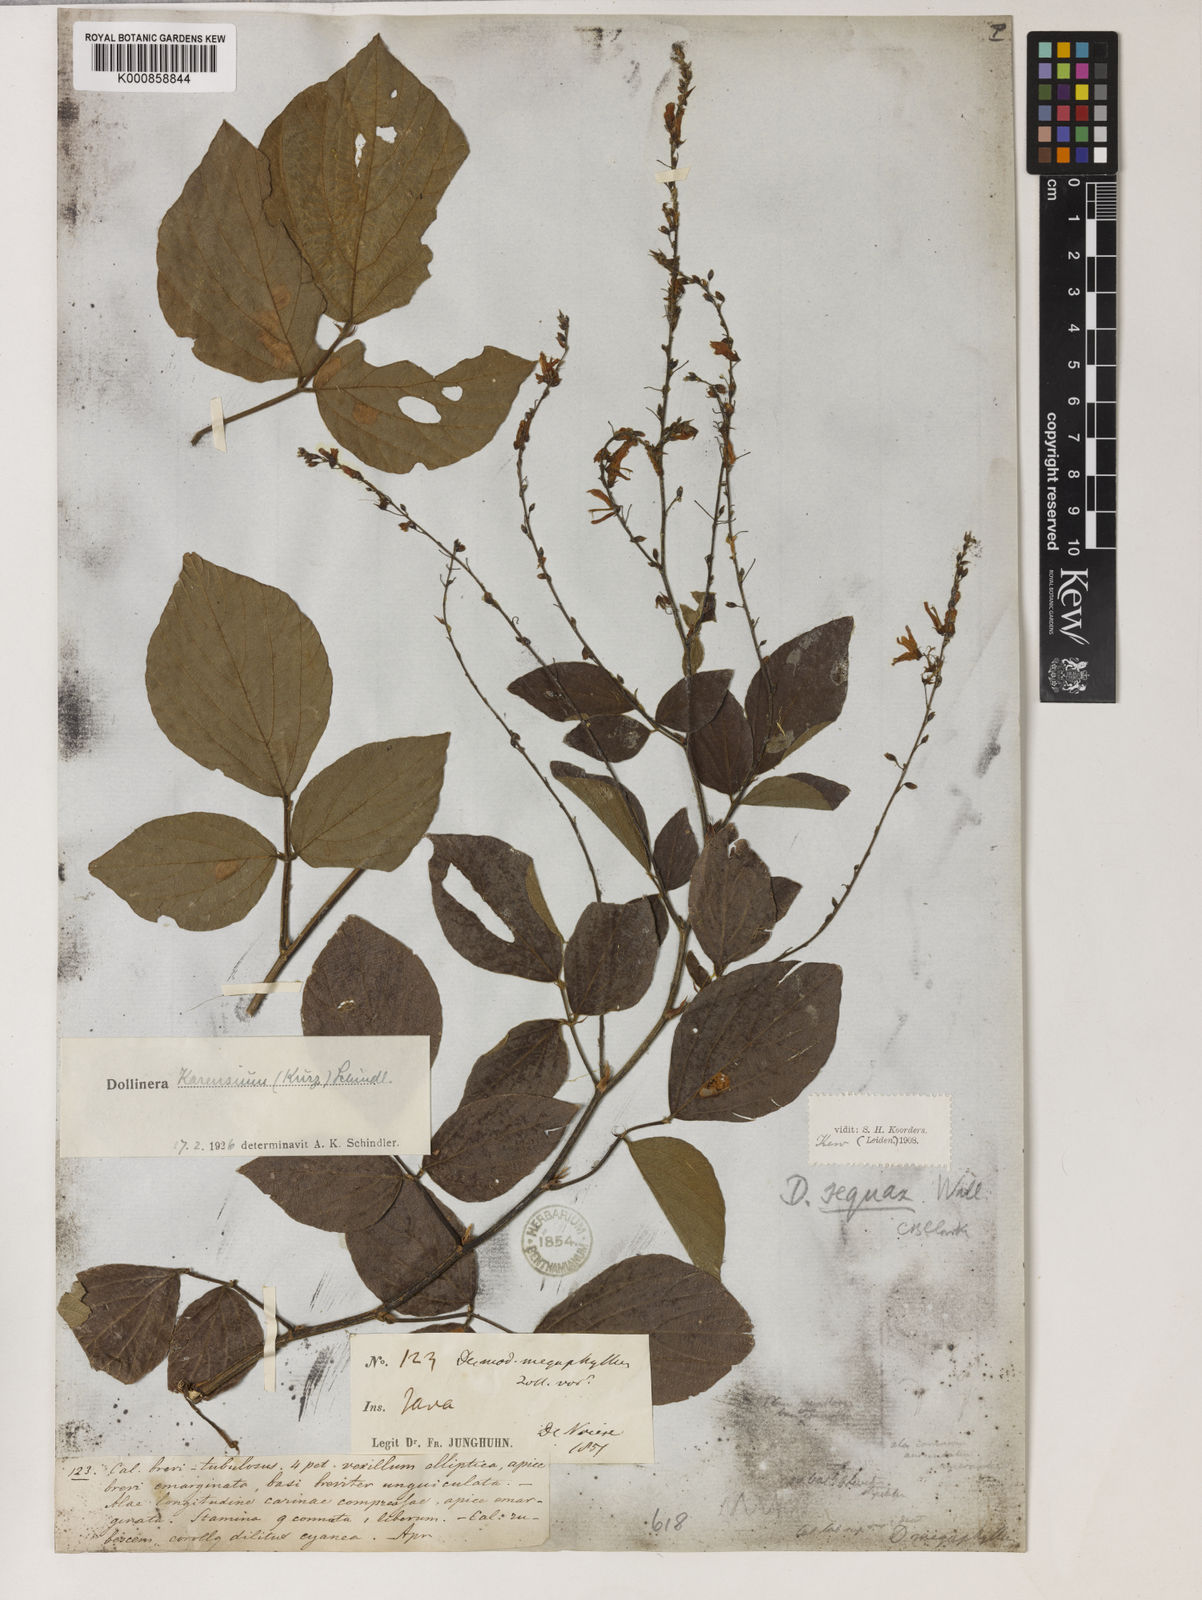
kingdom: Plantae
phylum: Tracheophyta
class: Magnoliopsida
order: Fabales
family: Fabaceae
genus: Puhuaea
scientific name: Puhuaea megaphylla
